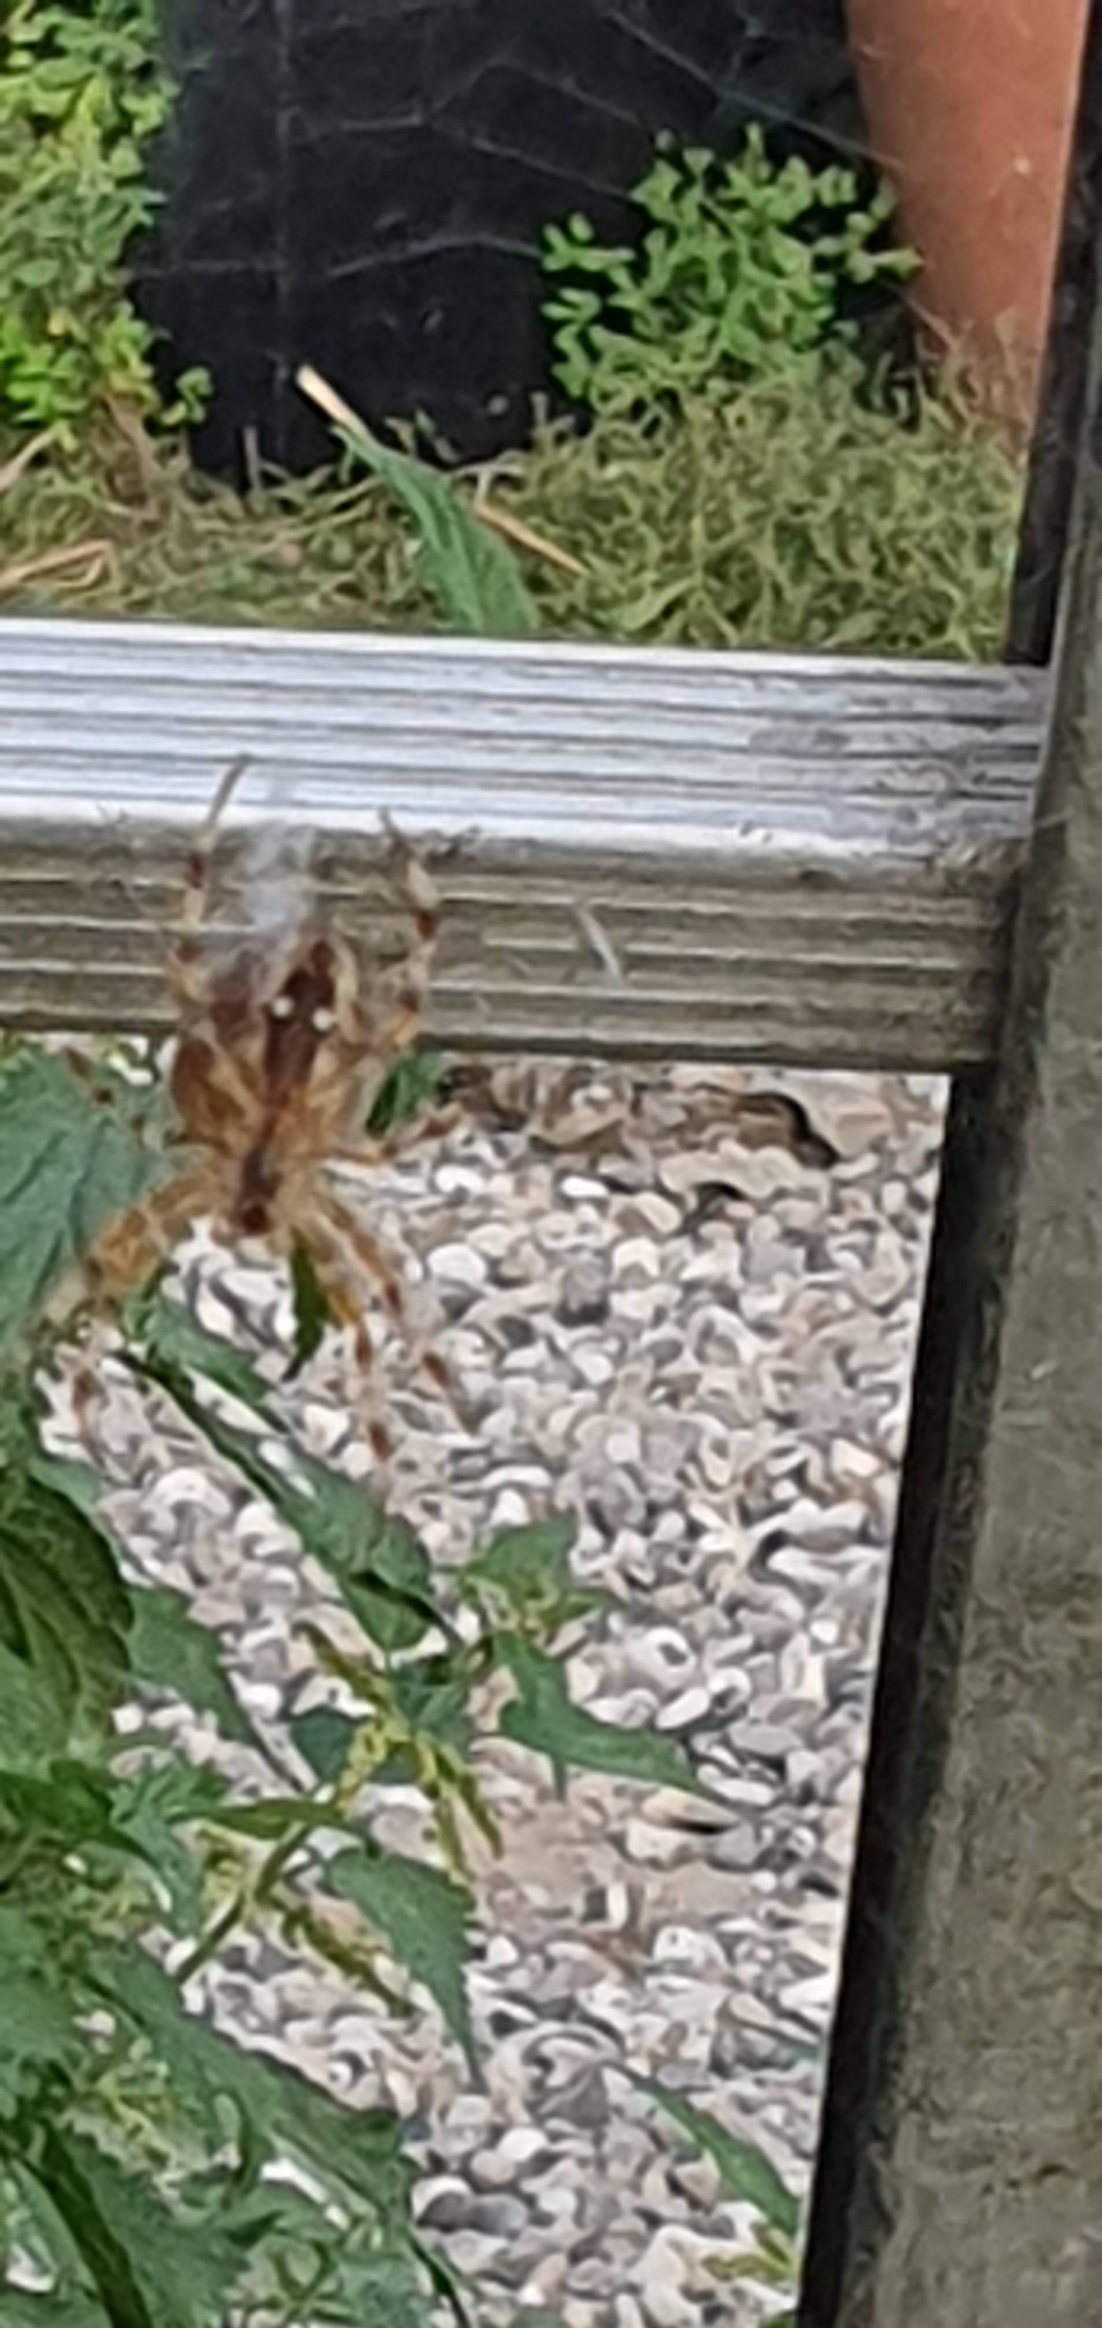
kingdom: Animalia
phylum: Arthropoda
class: Arachnida
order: Araneae
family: Araneidae
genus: Araneus
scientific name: Araneus diadematus
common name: Korsedderkop
